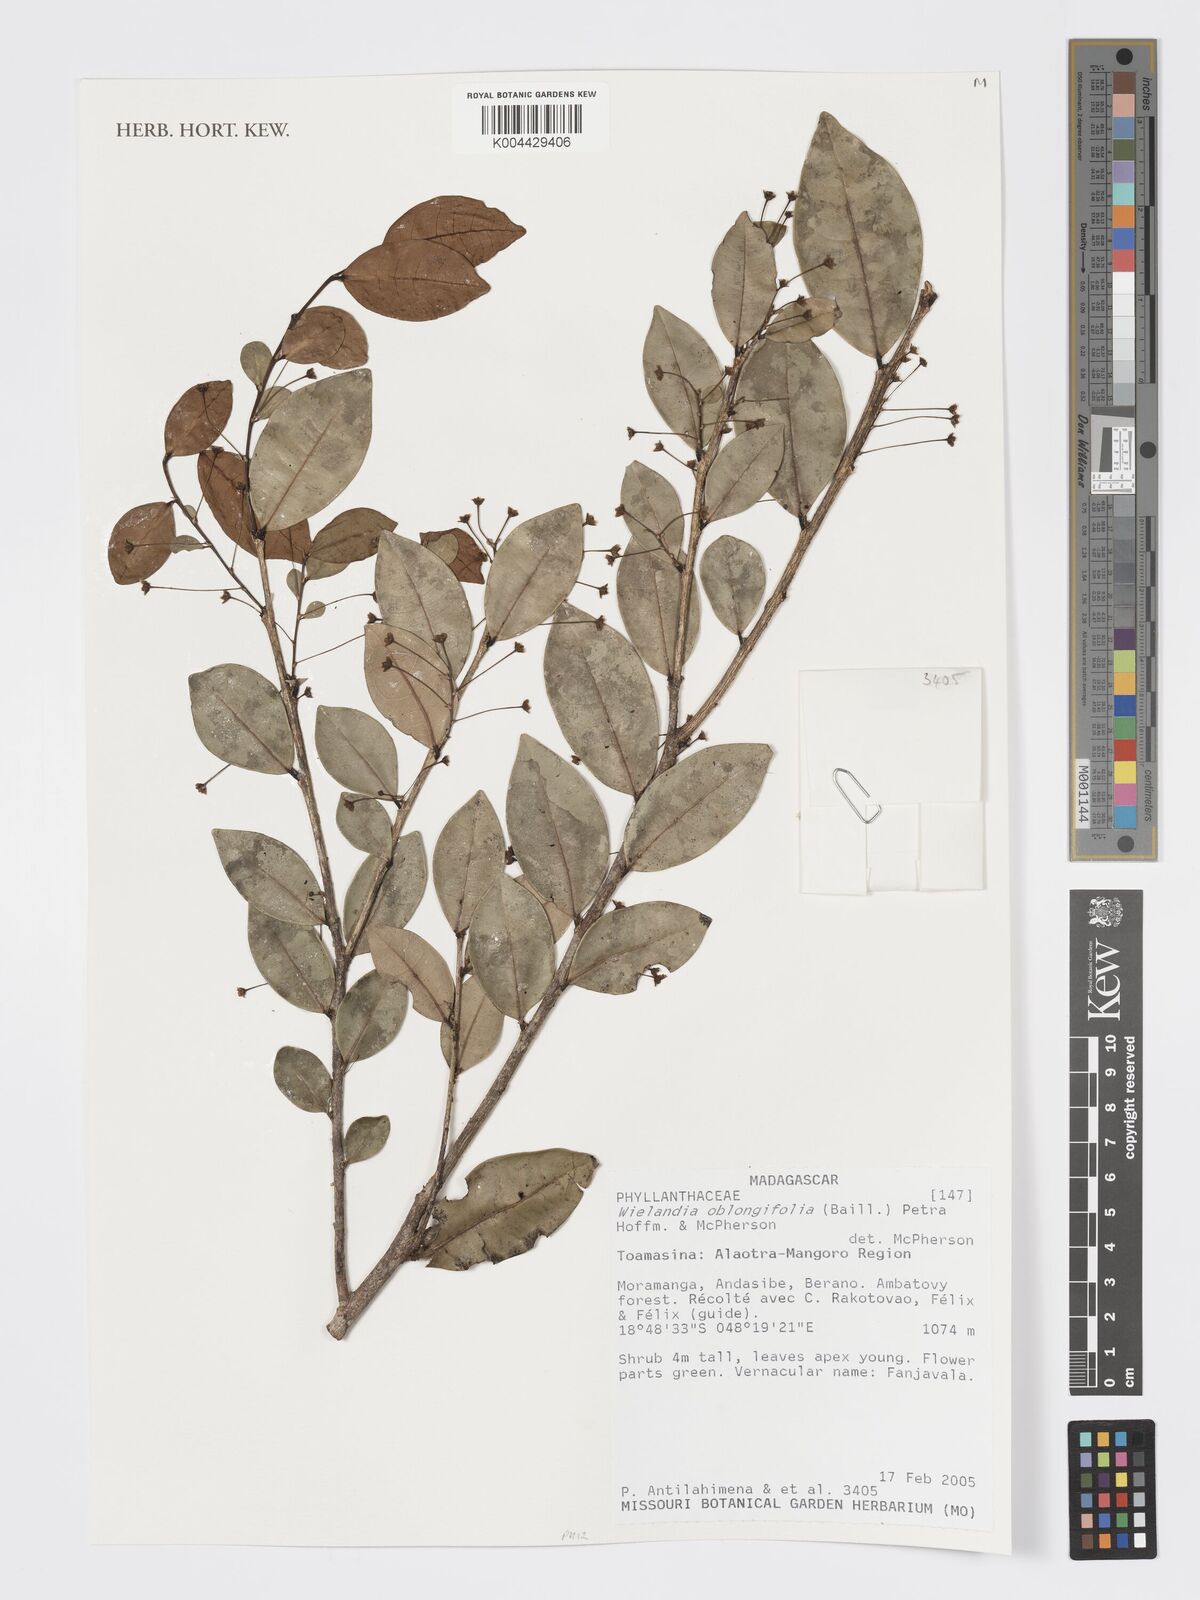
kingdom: Plantae
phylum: Tracheophyta
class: Magnoliopsida
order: Malpighiales
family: Phyllanthaceae
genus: Wielandia
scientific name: Wielandia oblongifolia
